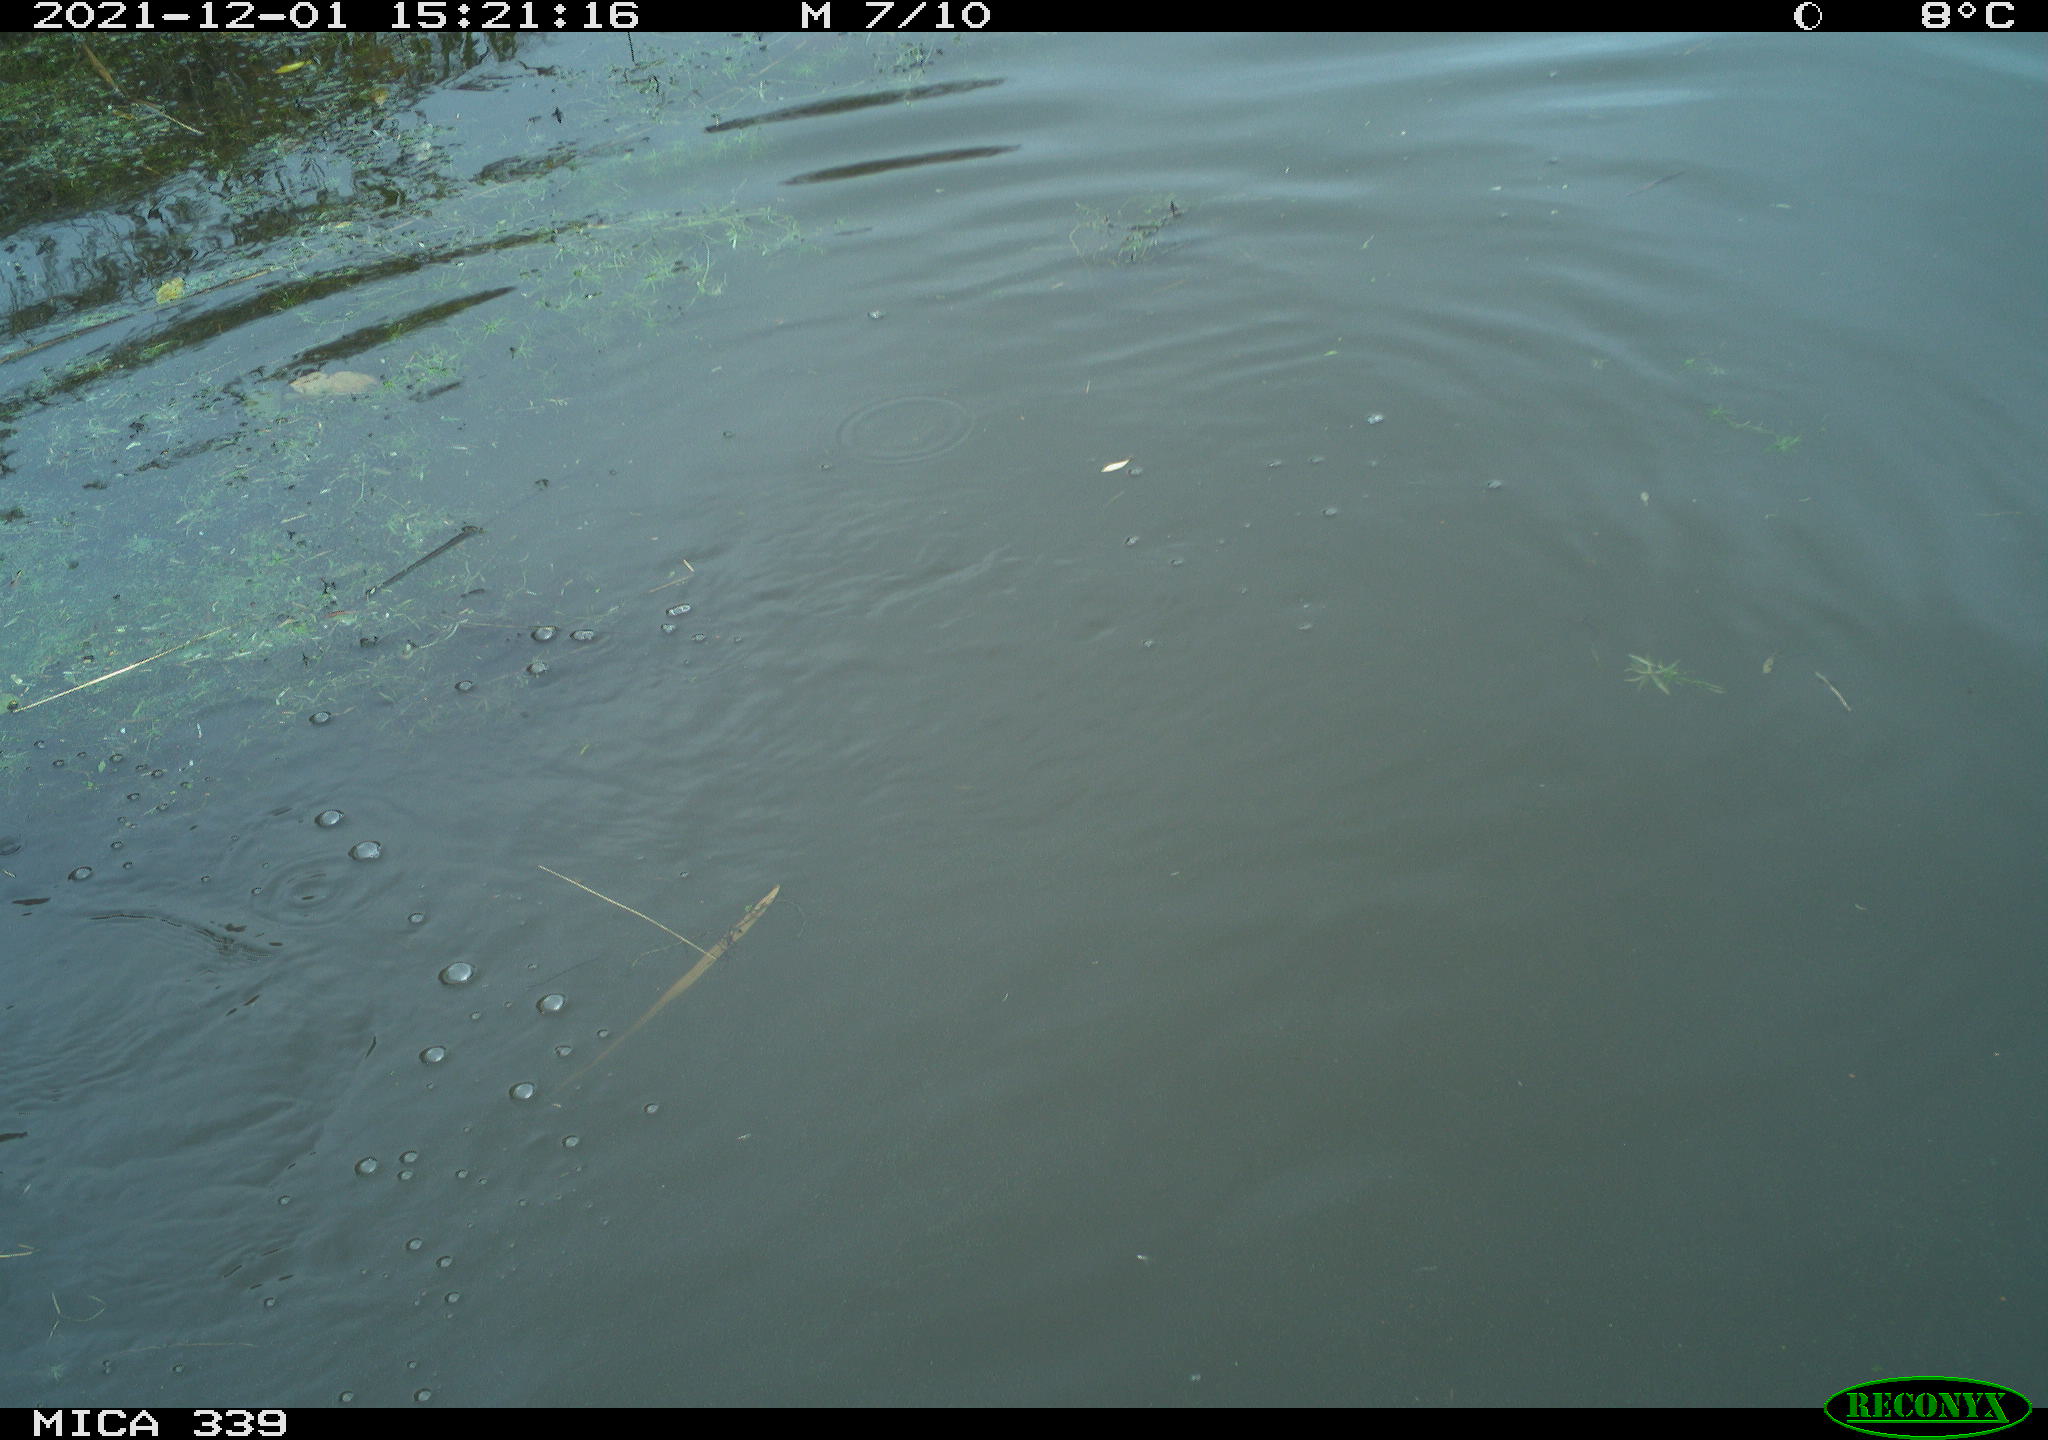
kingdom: Animalia
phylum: Chordata
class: Aves
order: Suliformes
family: Phalacrocoracidae
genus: Phalacrocorax
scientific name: Phalacrocorax carbo
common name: Great cormorant
